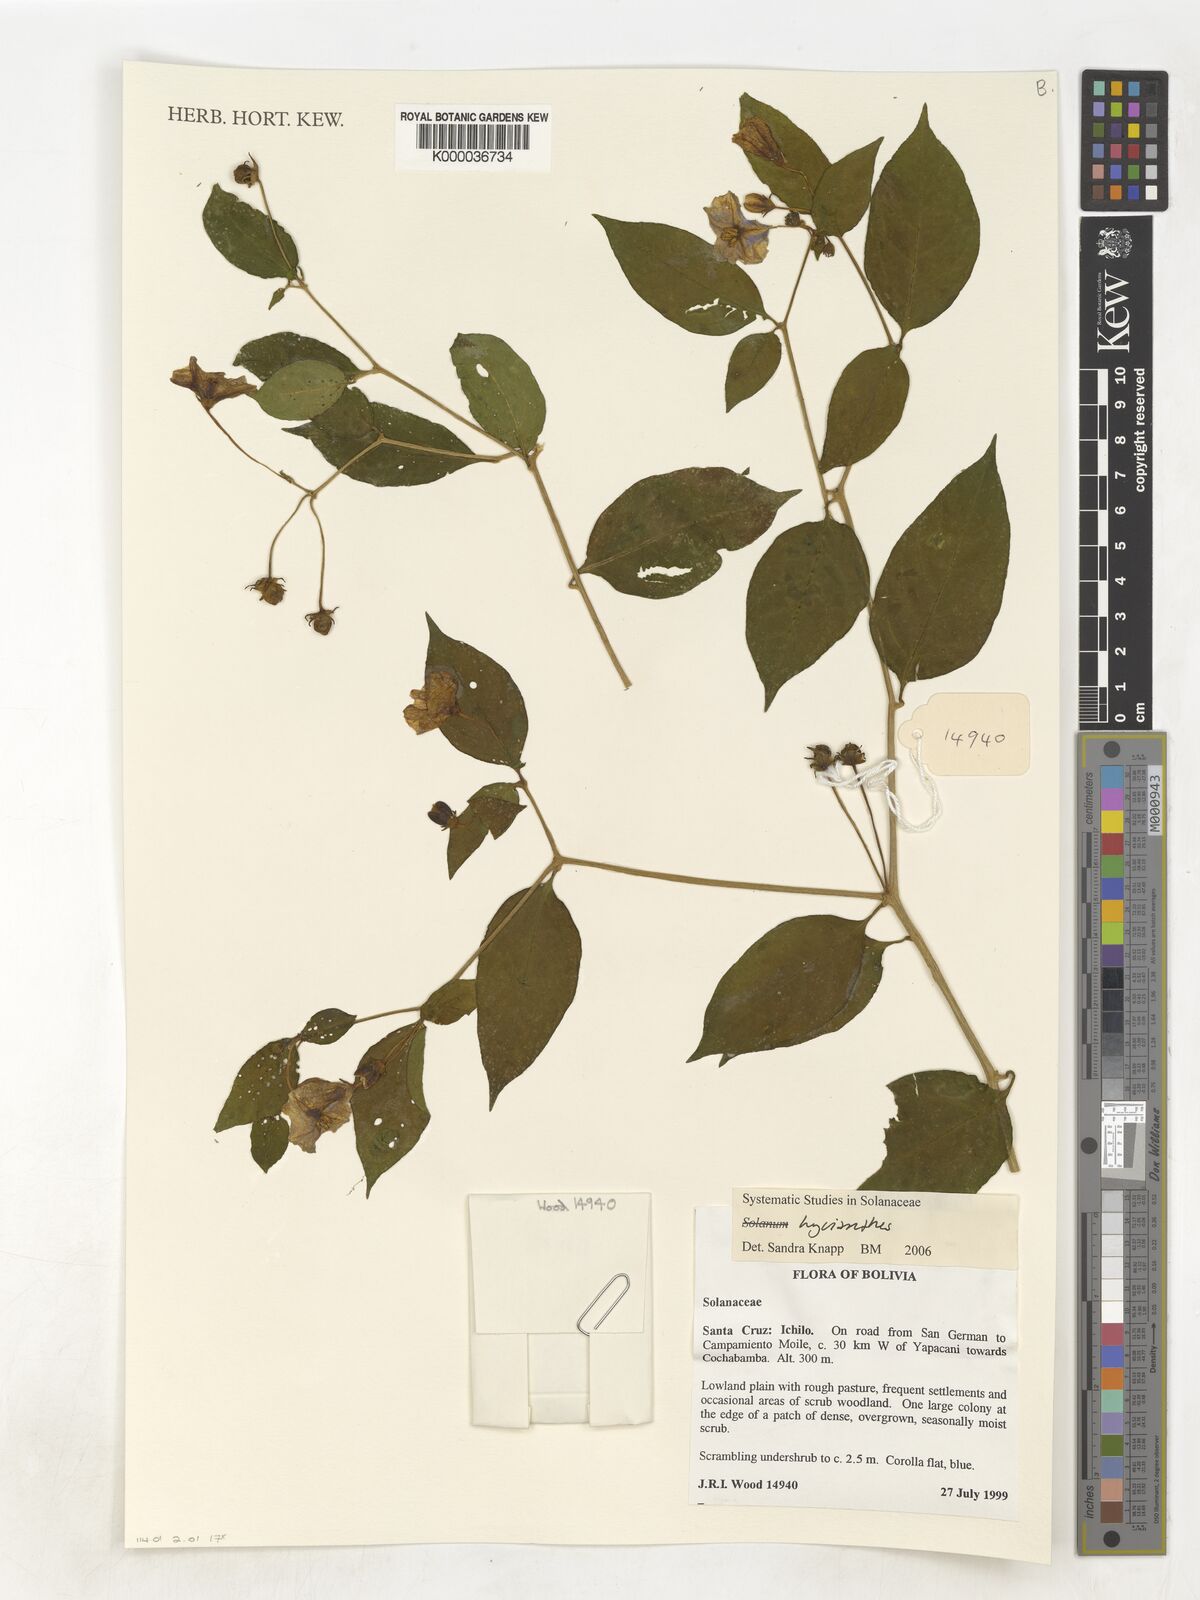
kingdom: Plantae
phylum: Tracheophyta
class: Magnoliopsida
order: Solanales
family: Solanaceae
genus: Lycianthes
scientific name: Lycianthes
